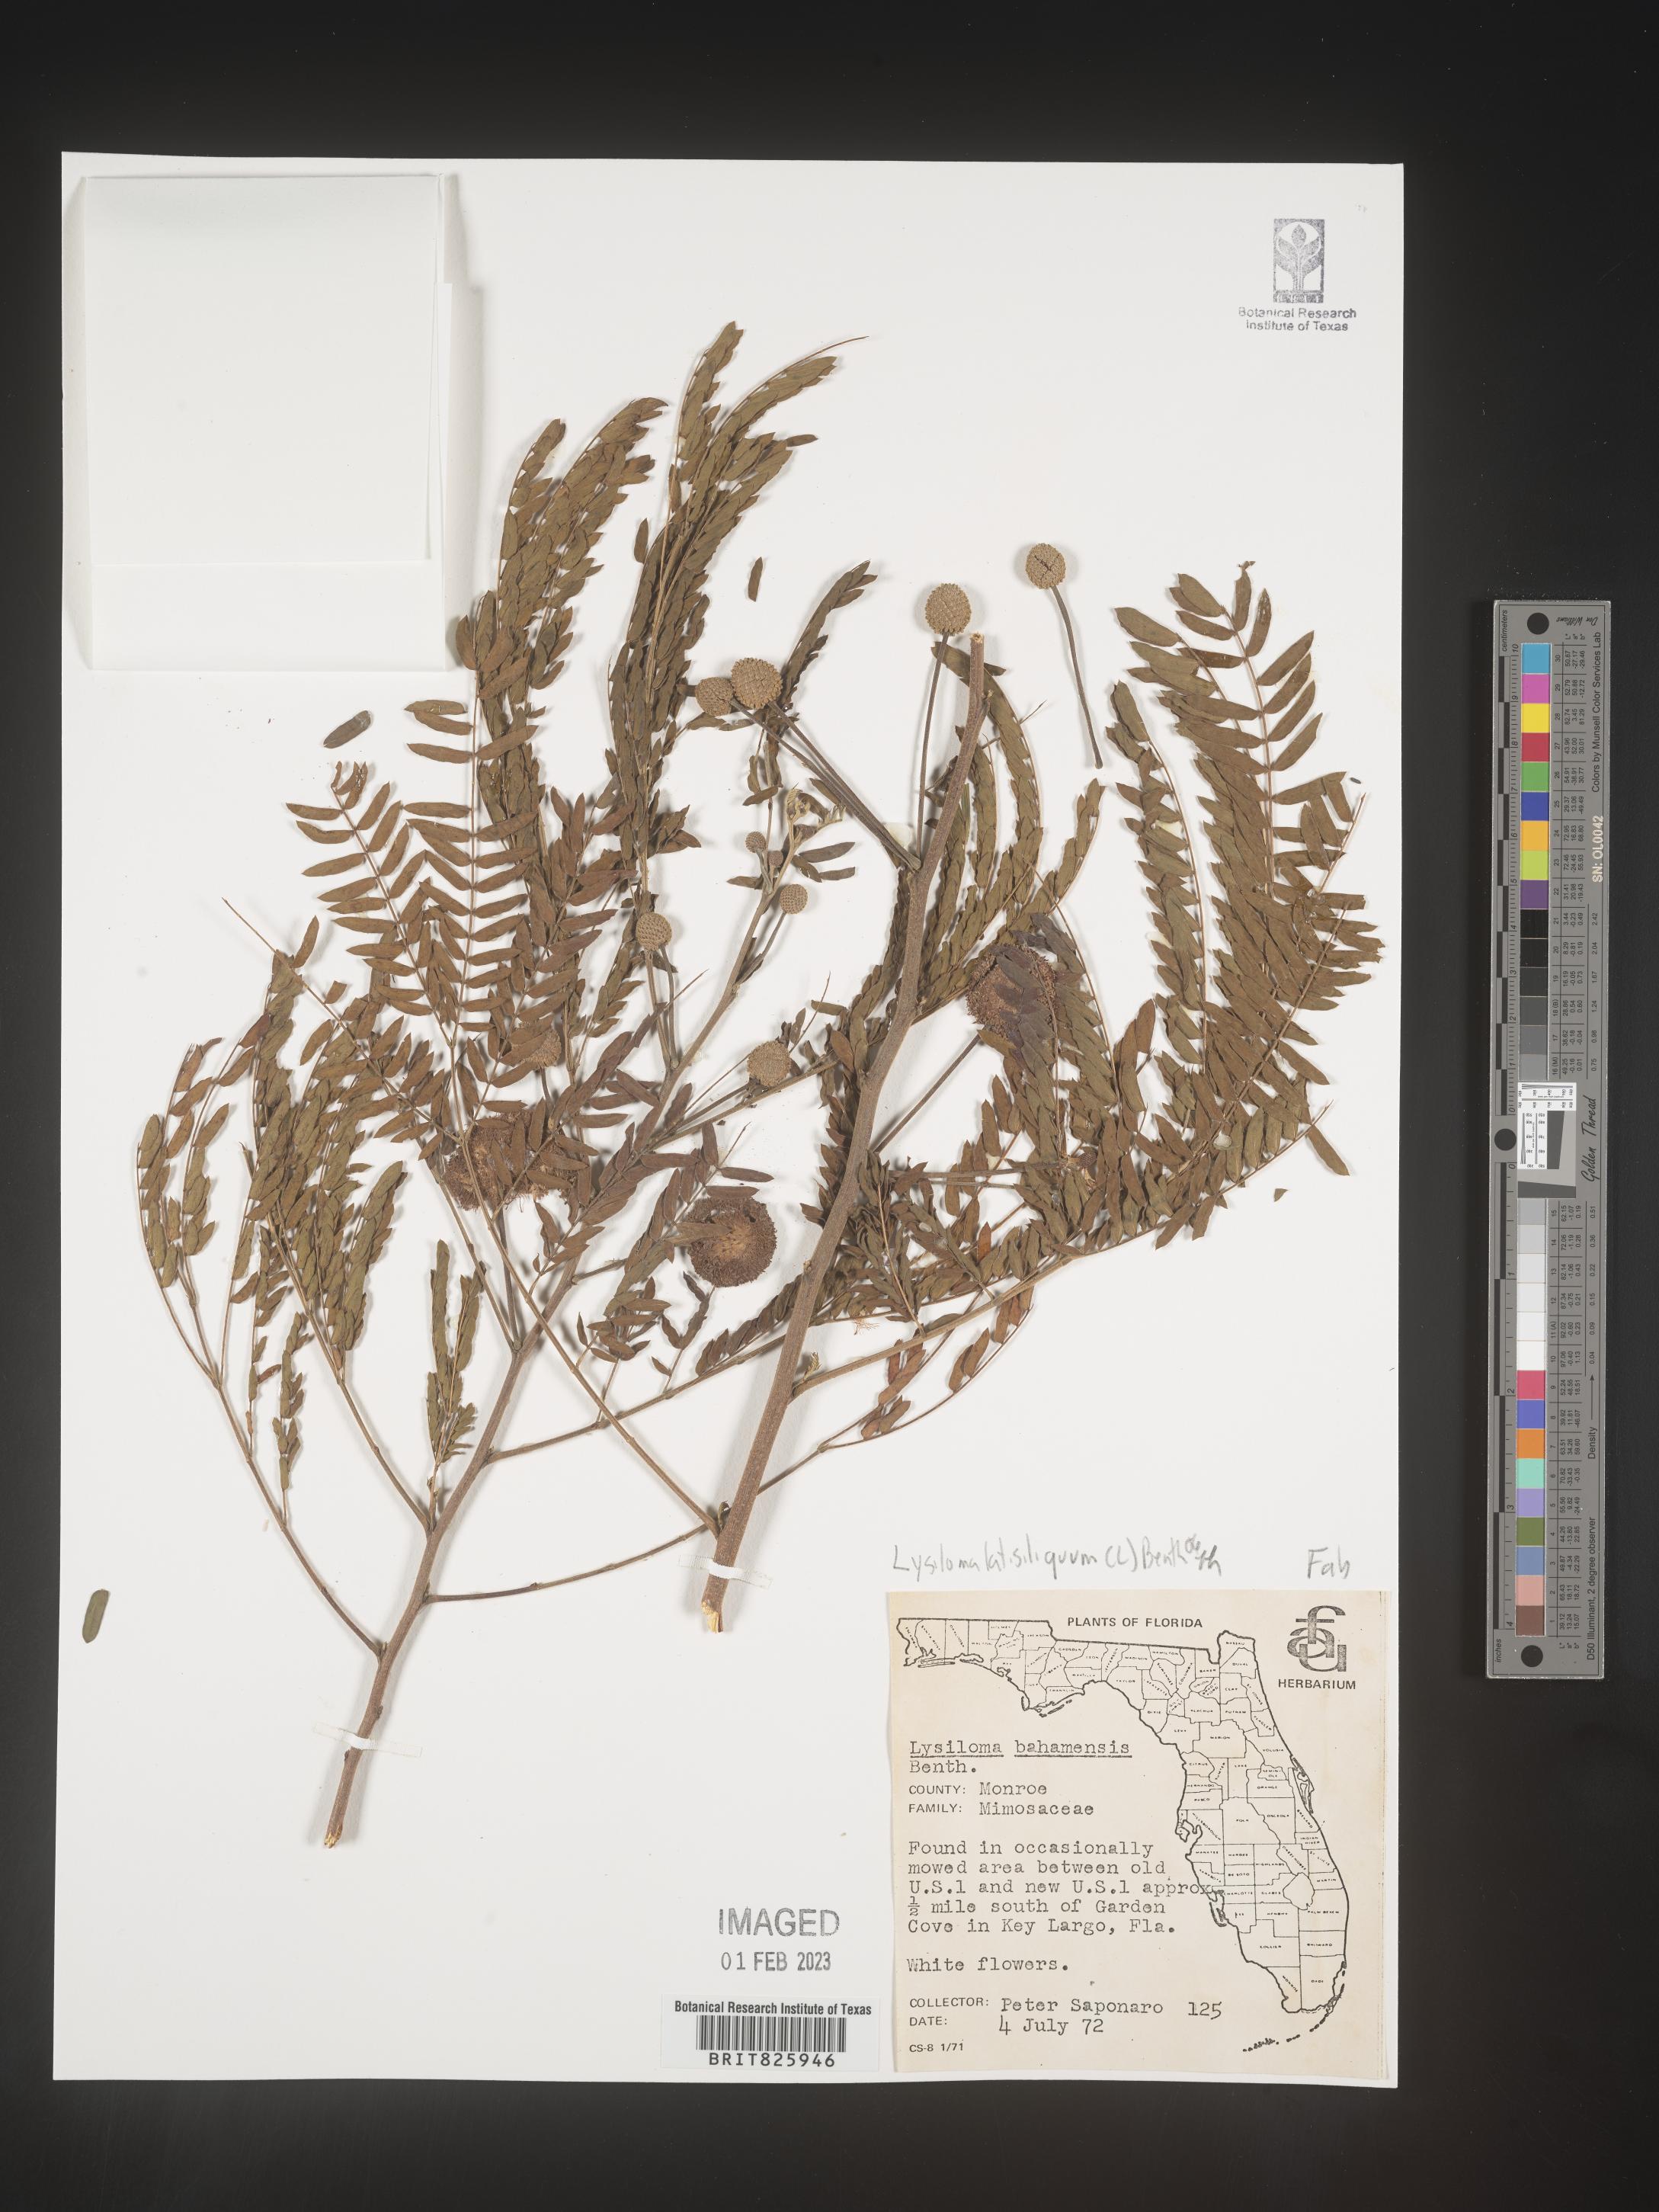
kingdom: Plantae
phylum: Tracheophyta
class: Magnoliopsida
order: Fabales
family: Fabaceae
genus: Lysiloma
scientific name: Lysiloma
